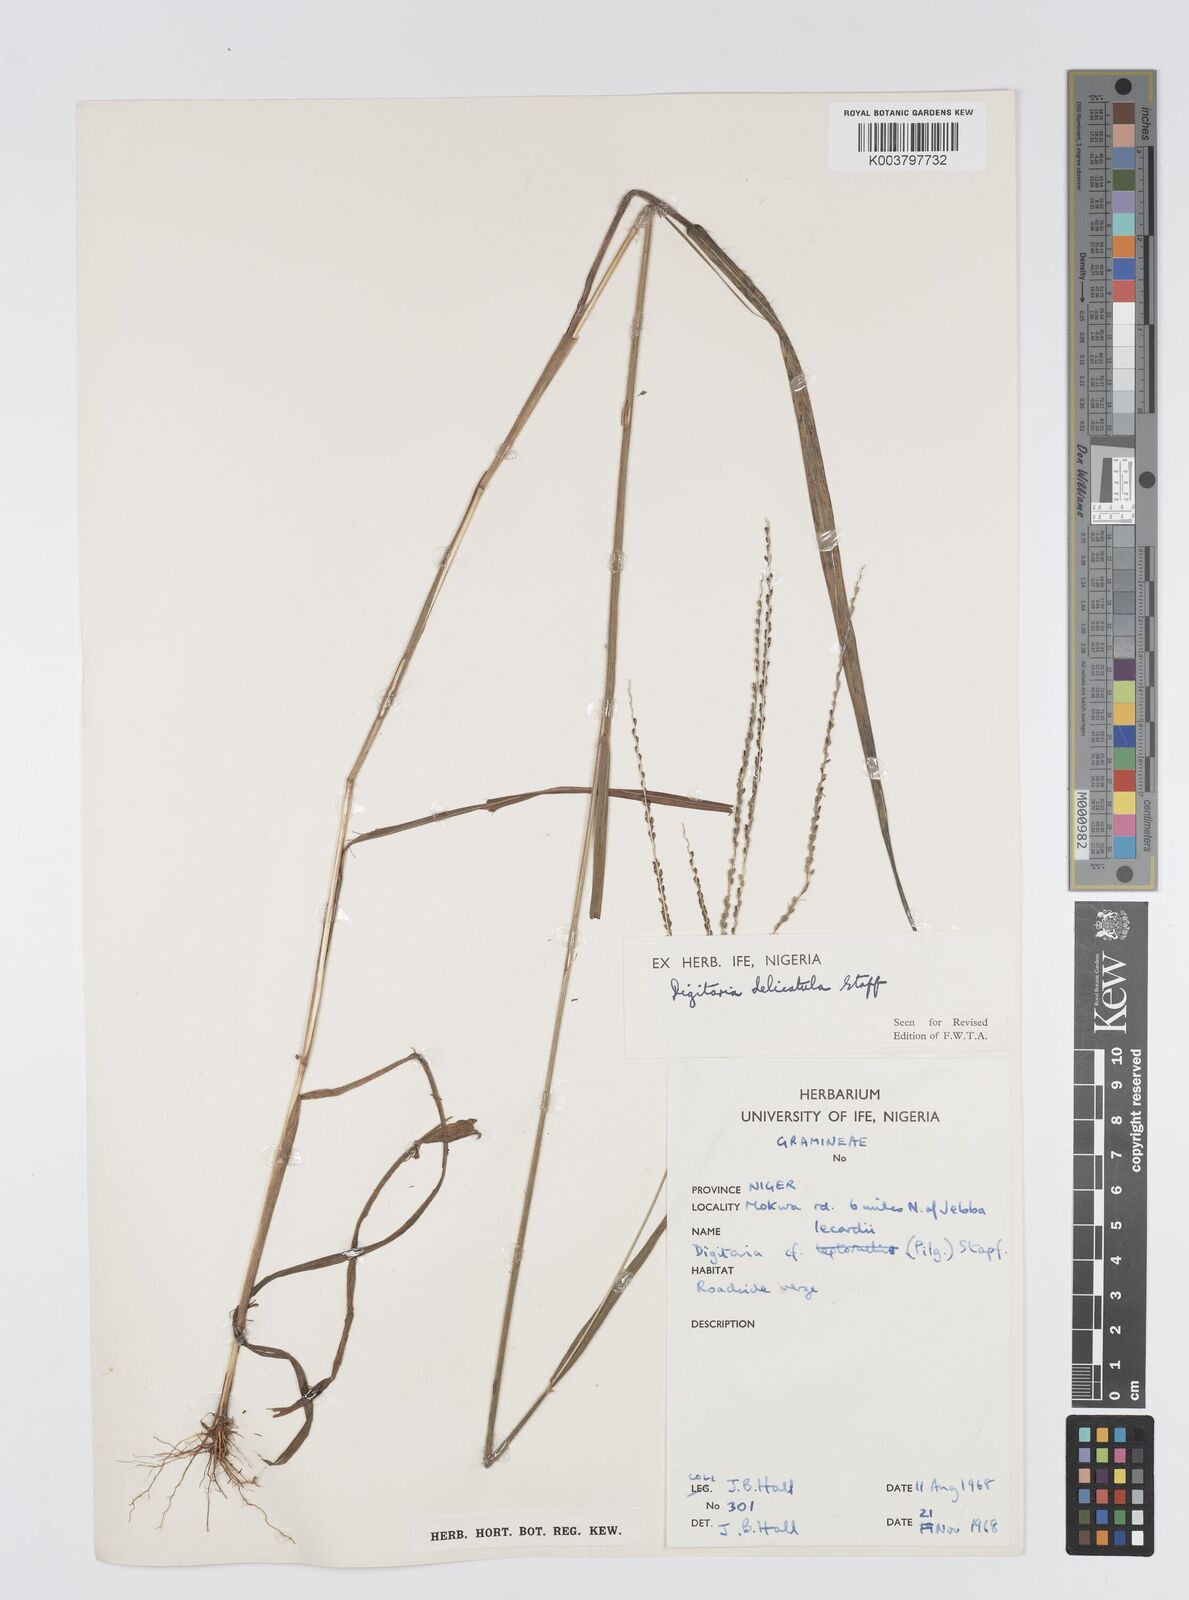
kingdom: Plantae
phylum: Tracheophyta
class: Liliopsida
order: Poales
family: Poaceae
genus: Digitaria
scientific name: Digitaria delicatula
